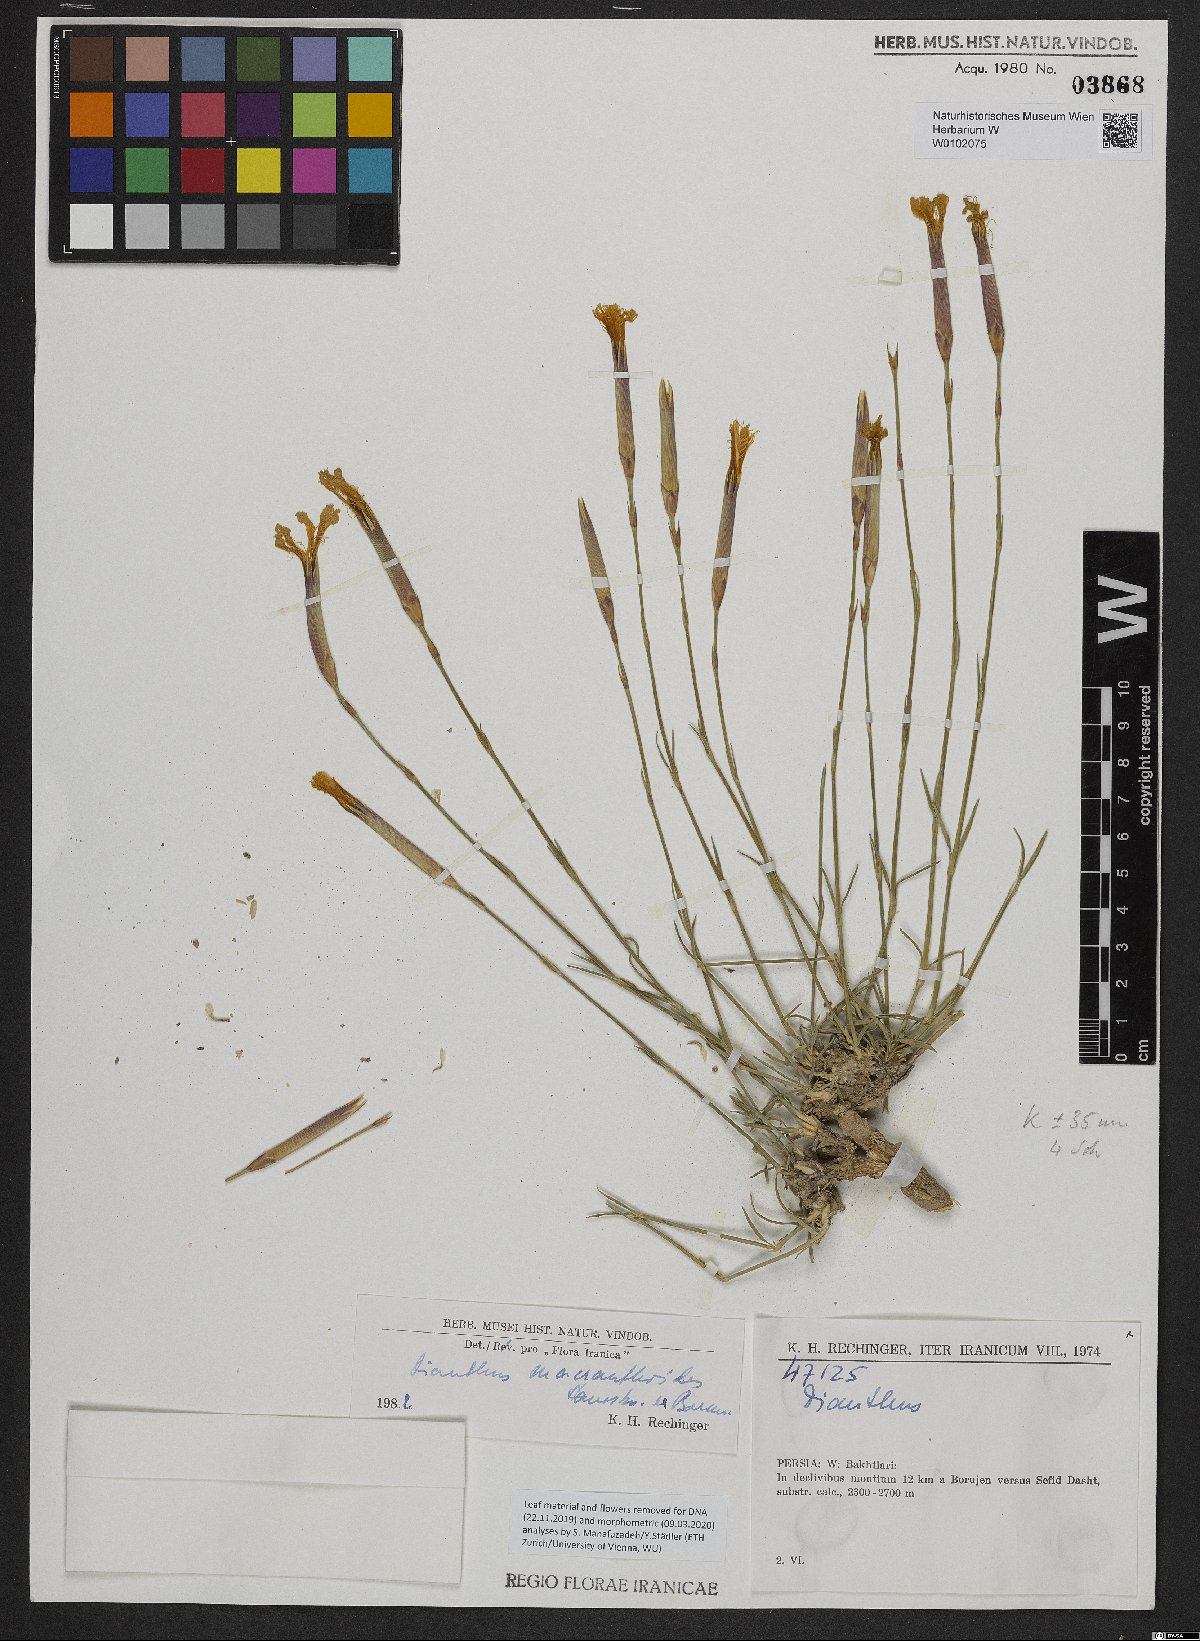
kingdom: Plantae
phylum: Tracheophyta
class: Magnoliopsida
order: Caryophyllales
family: Caryophyllaceae
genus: Dianthus
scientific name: Dianthus macranthoides
